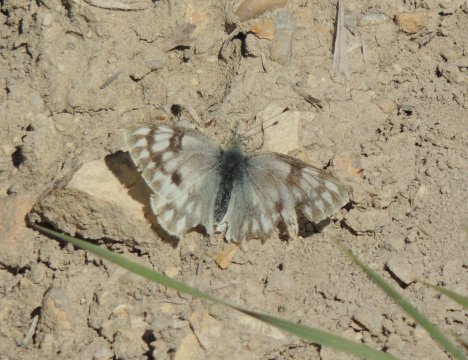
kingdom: Animalia
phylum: Arthropoda
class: Insecta
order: Lepidoptera
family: Pieridae
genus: Pontia
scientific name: Pontia occidentalis
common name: Western White
